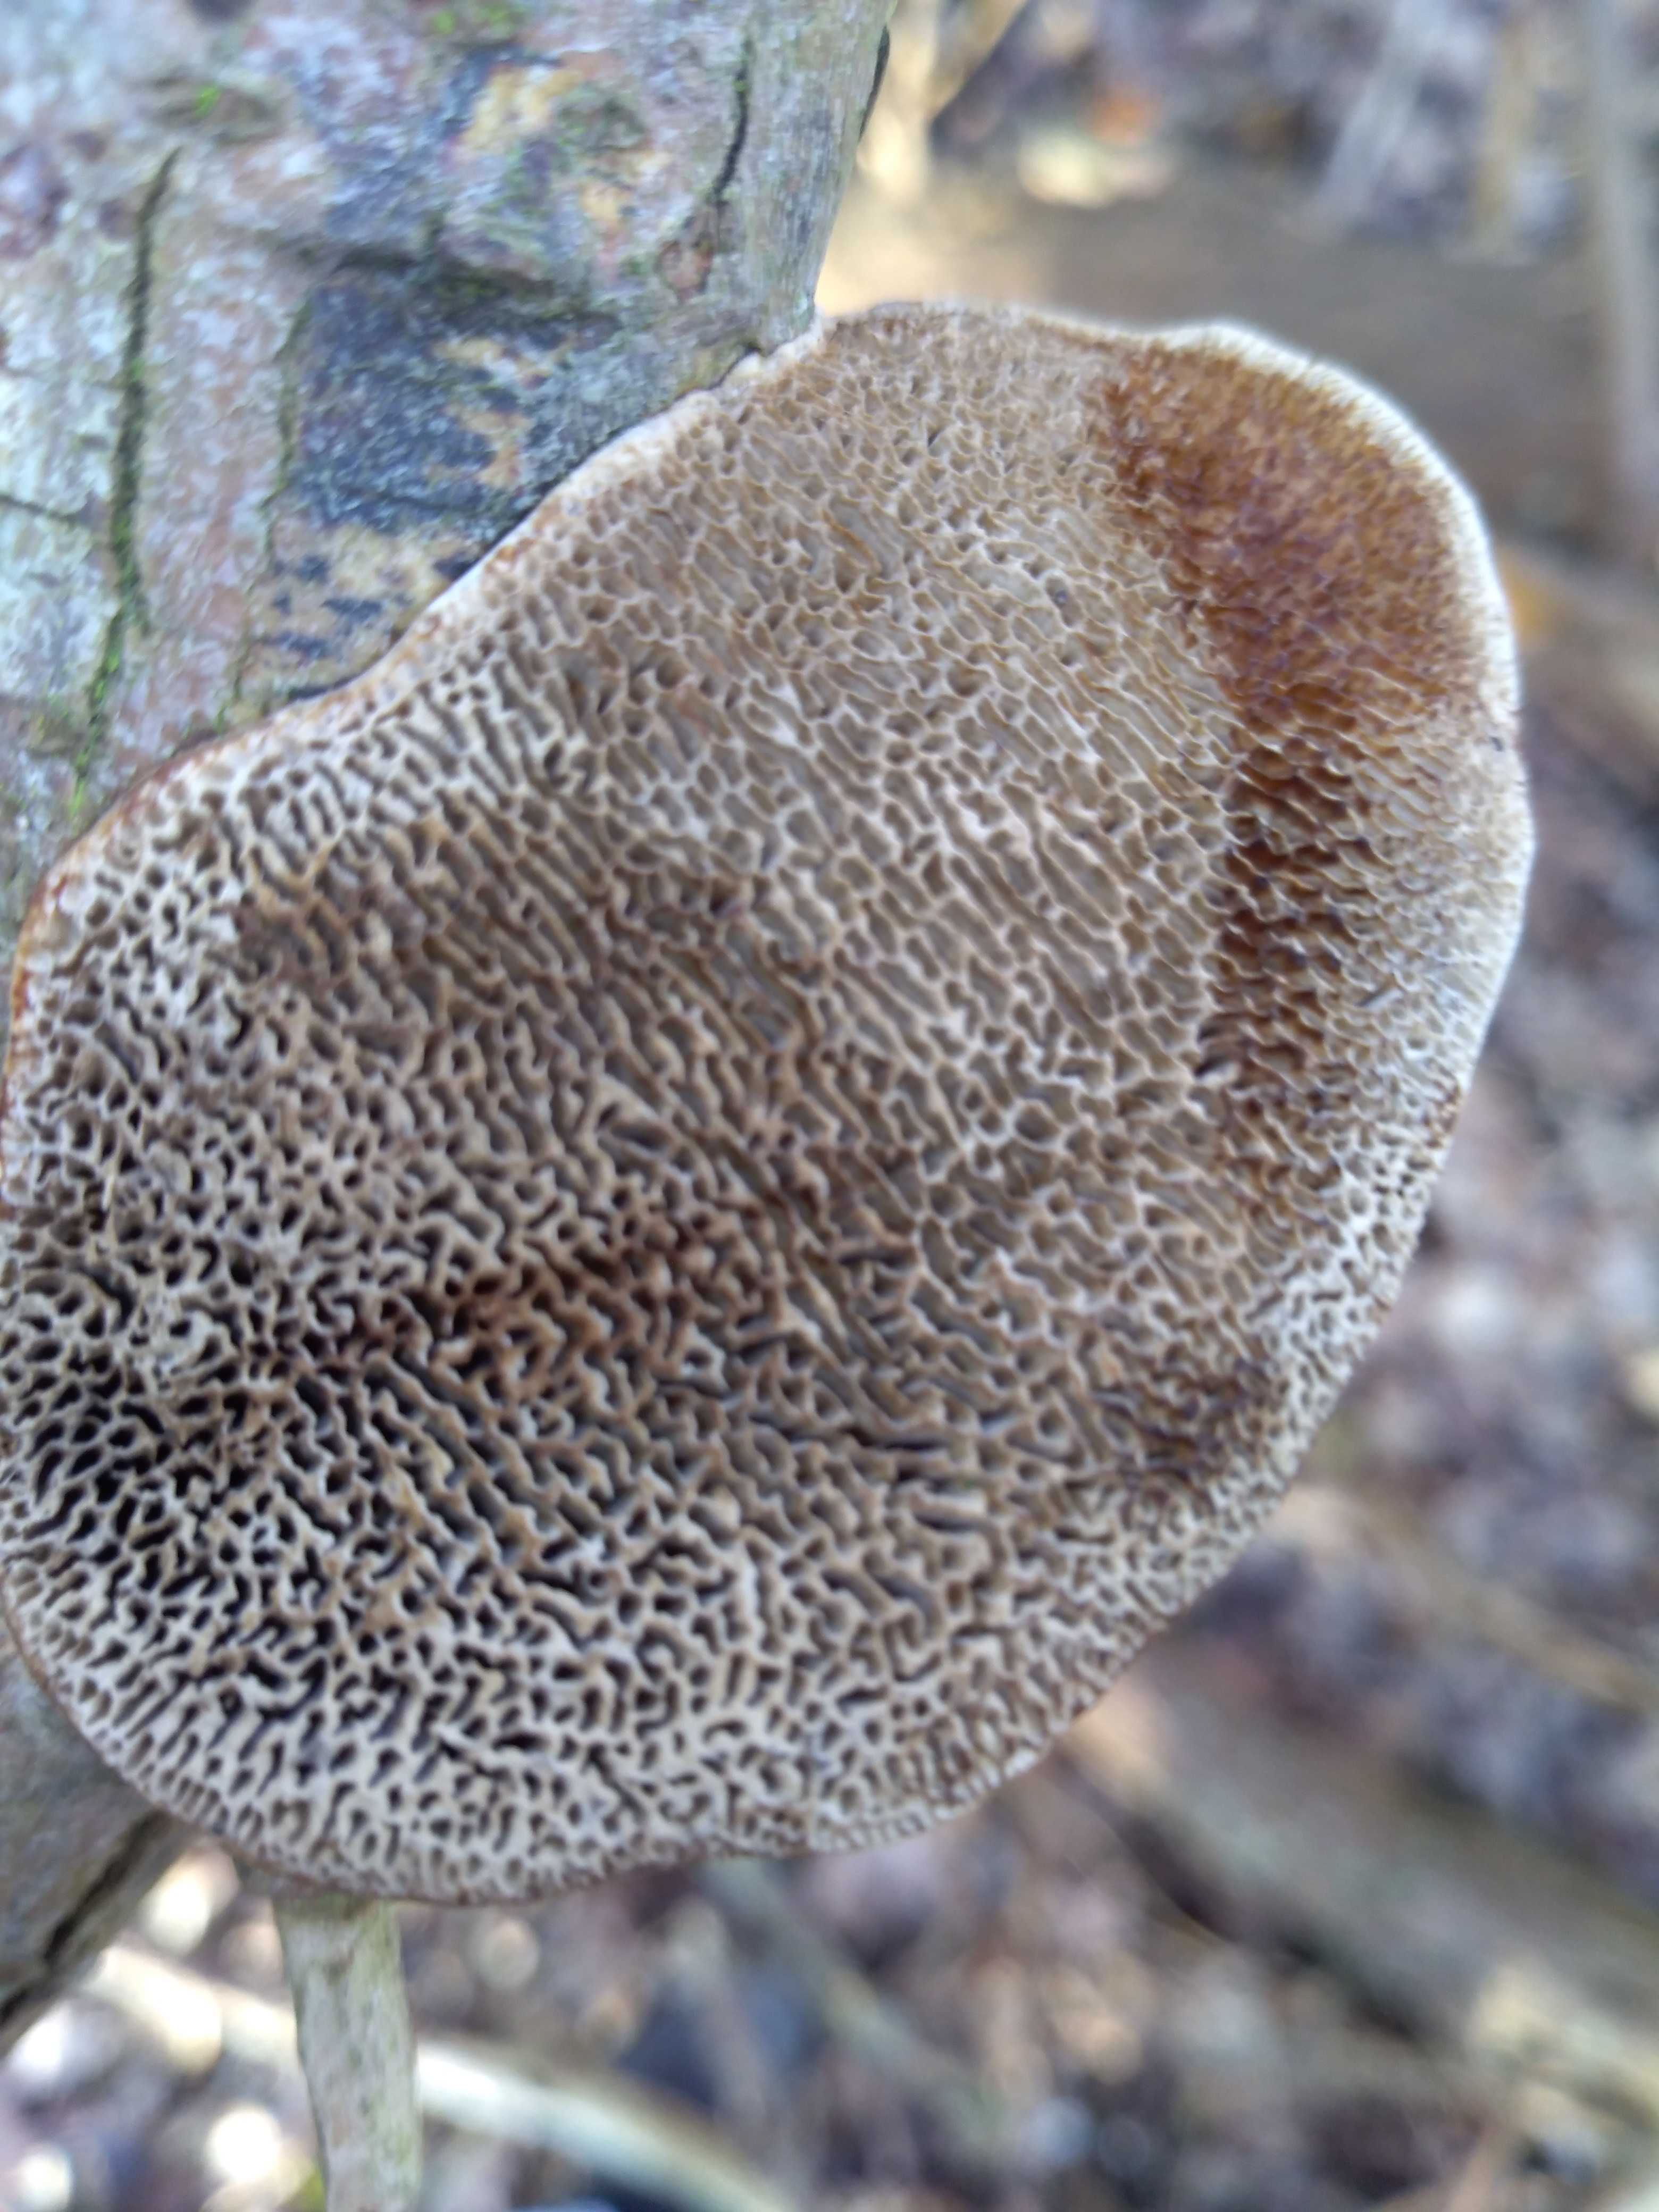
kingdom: Fungi
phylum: Basidiomycota
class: Agaricomycetes
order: Polyporales
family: Polyporaceae
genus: Daedaleopsis
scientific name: Daedaleopsis confragosa
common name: rødmende læderporesvamp
